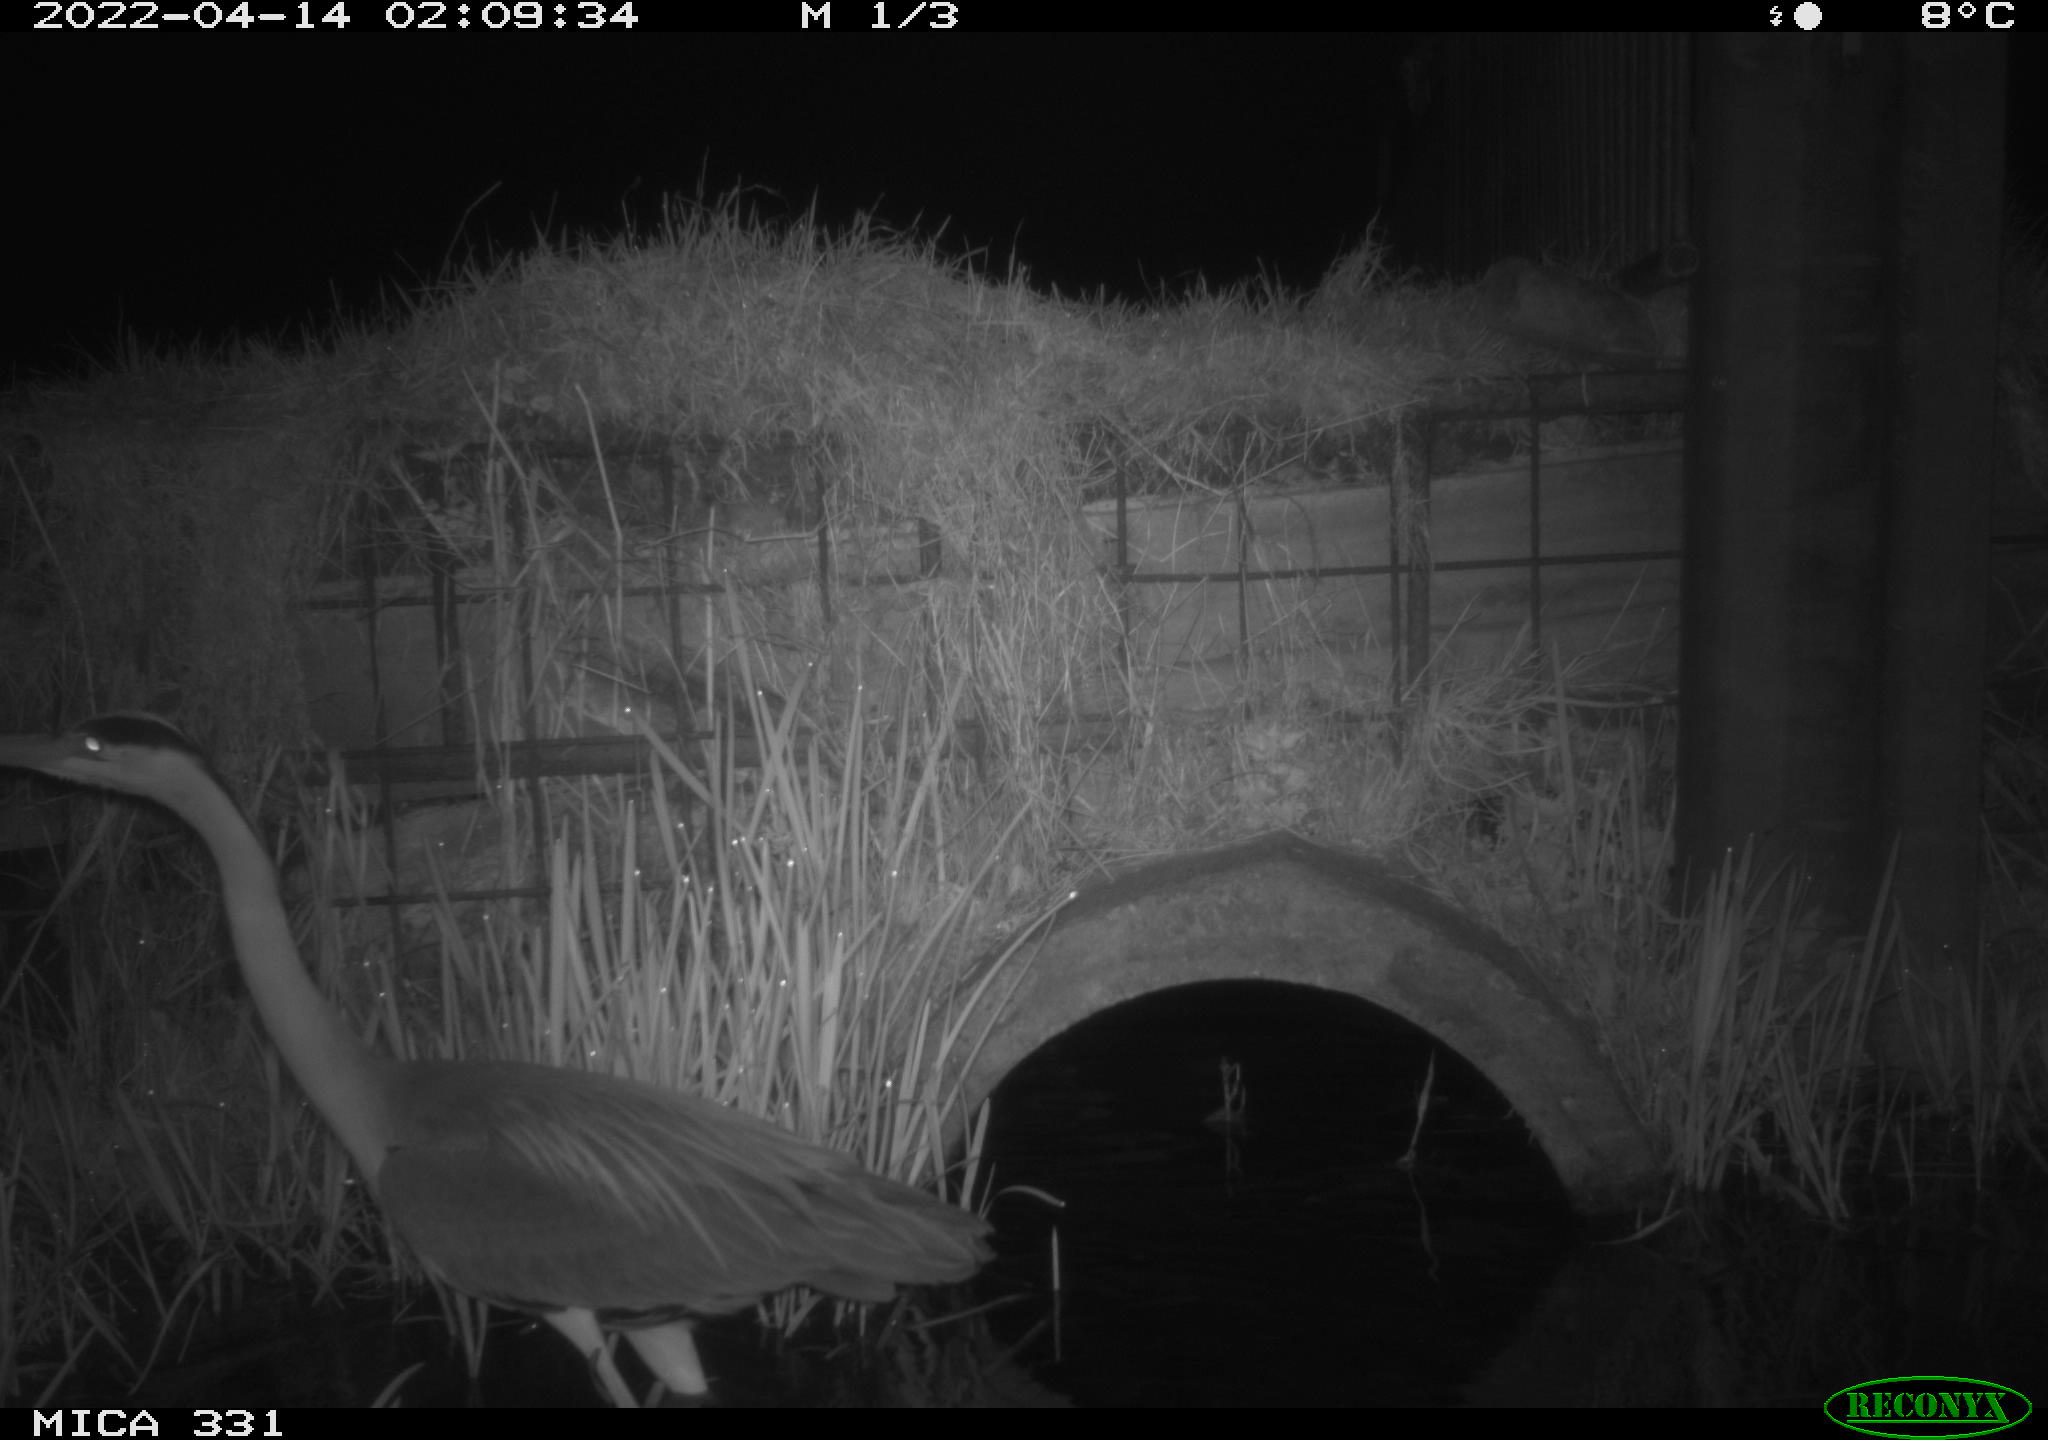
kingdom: Animalia
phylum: Chordata
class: Aves
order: Pelecaniformes
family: Ardeidae
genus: Ardea
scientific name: Ardea
